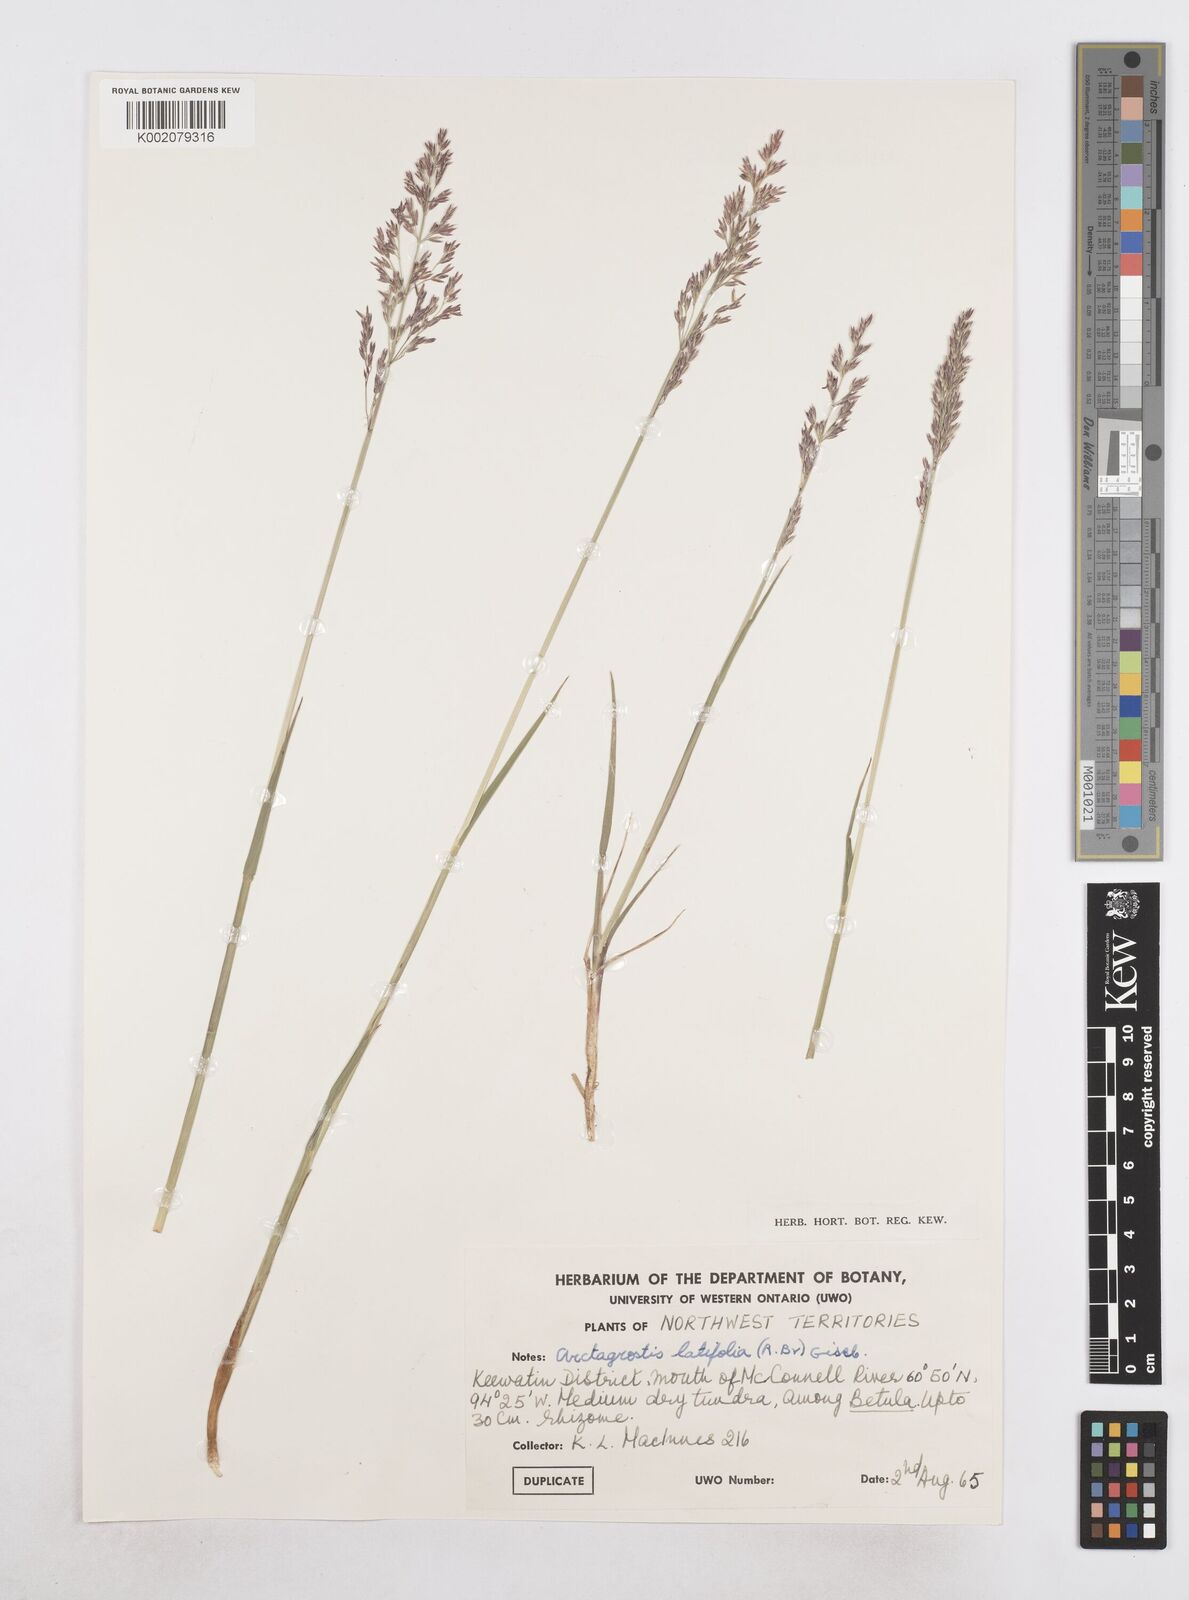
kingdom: Plantae
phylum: Tracheophyta
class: Liliopsida
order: Poales
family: Poaceae
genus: Arctagrostis
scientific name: Arctagrostis arundinacea
